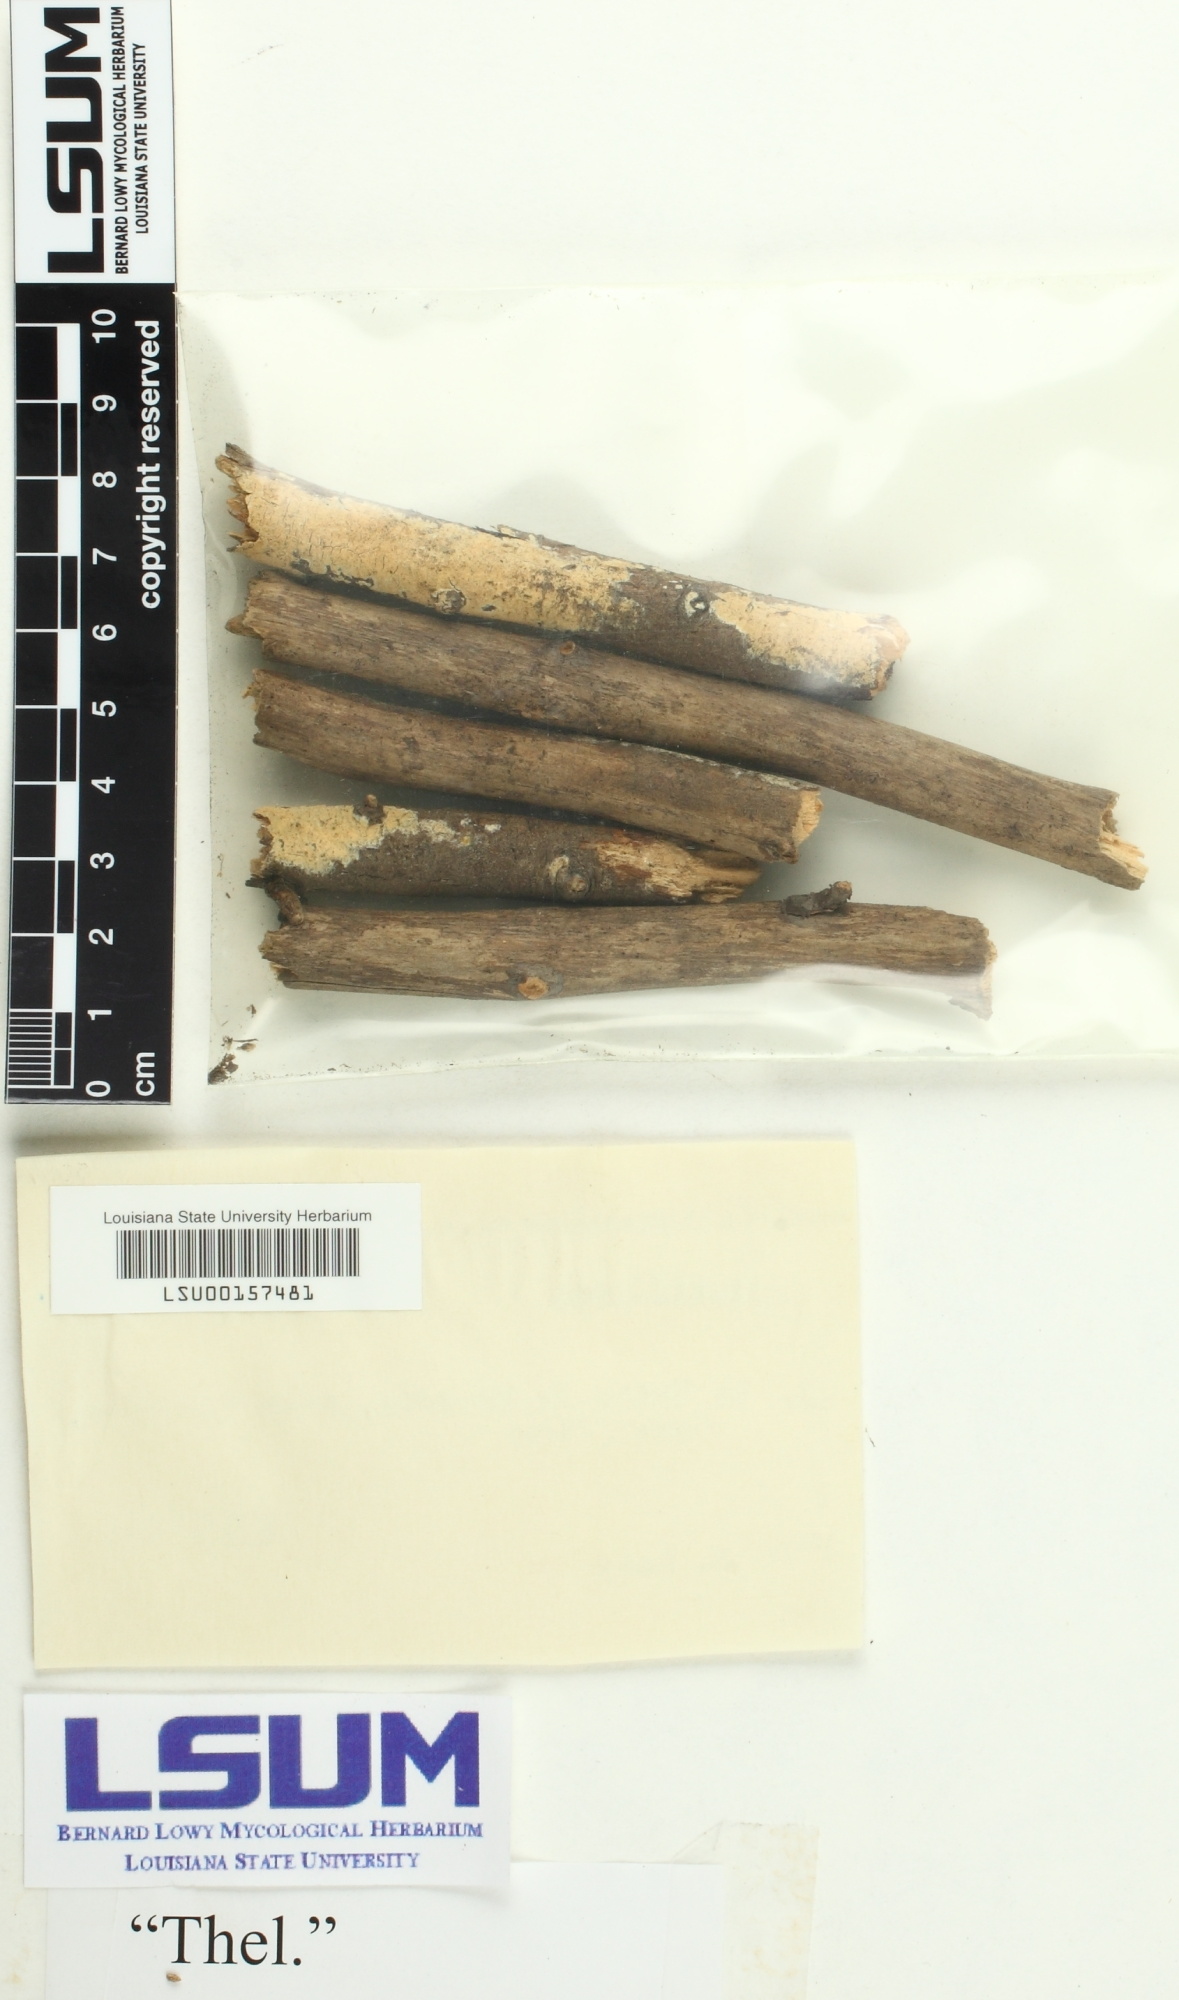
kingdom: Fungi
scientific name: Fungi
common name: Fungi
